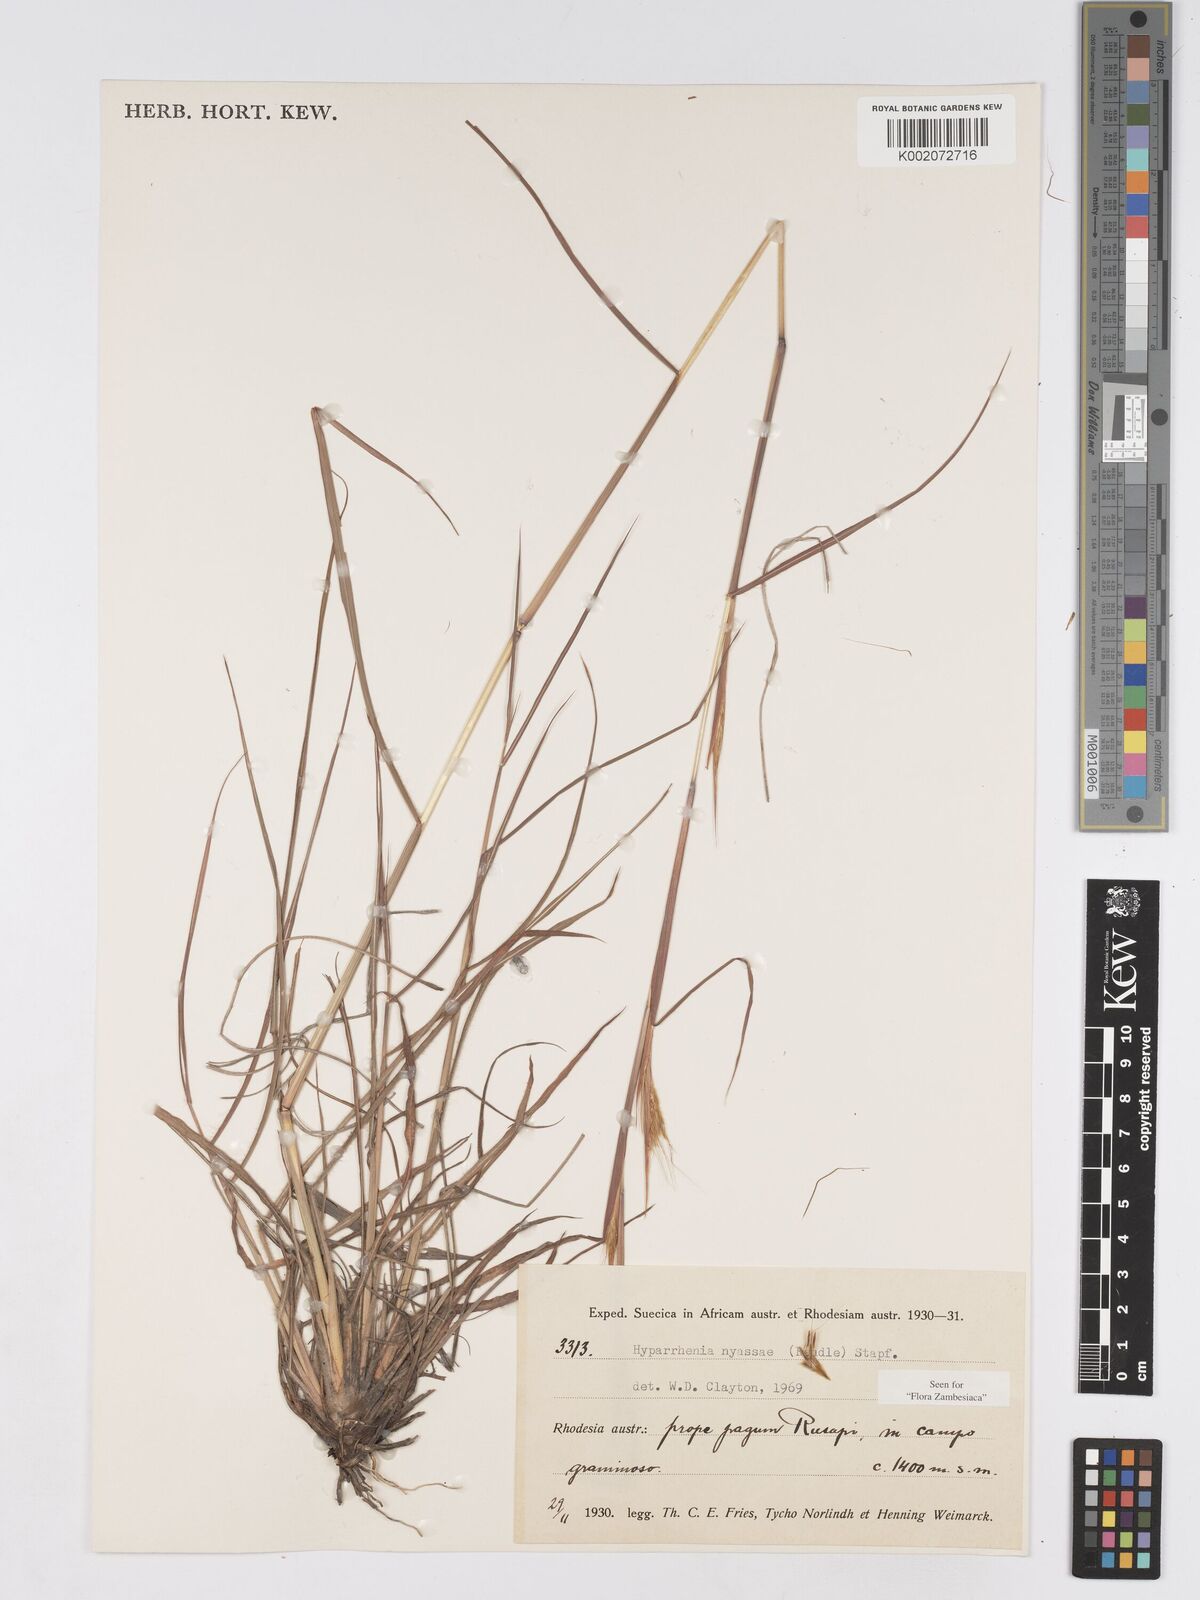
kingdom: Plantae
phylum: Tracheophyta
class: Liliopsida
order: Poales
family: Poaceae
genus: Hyparrhenia
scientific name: Hyparrhenia nyassae
